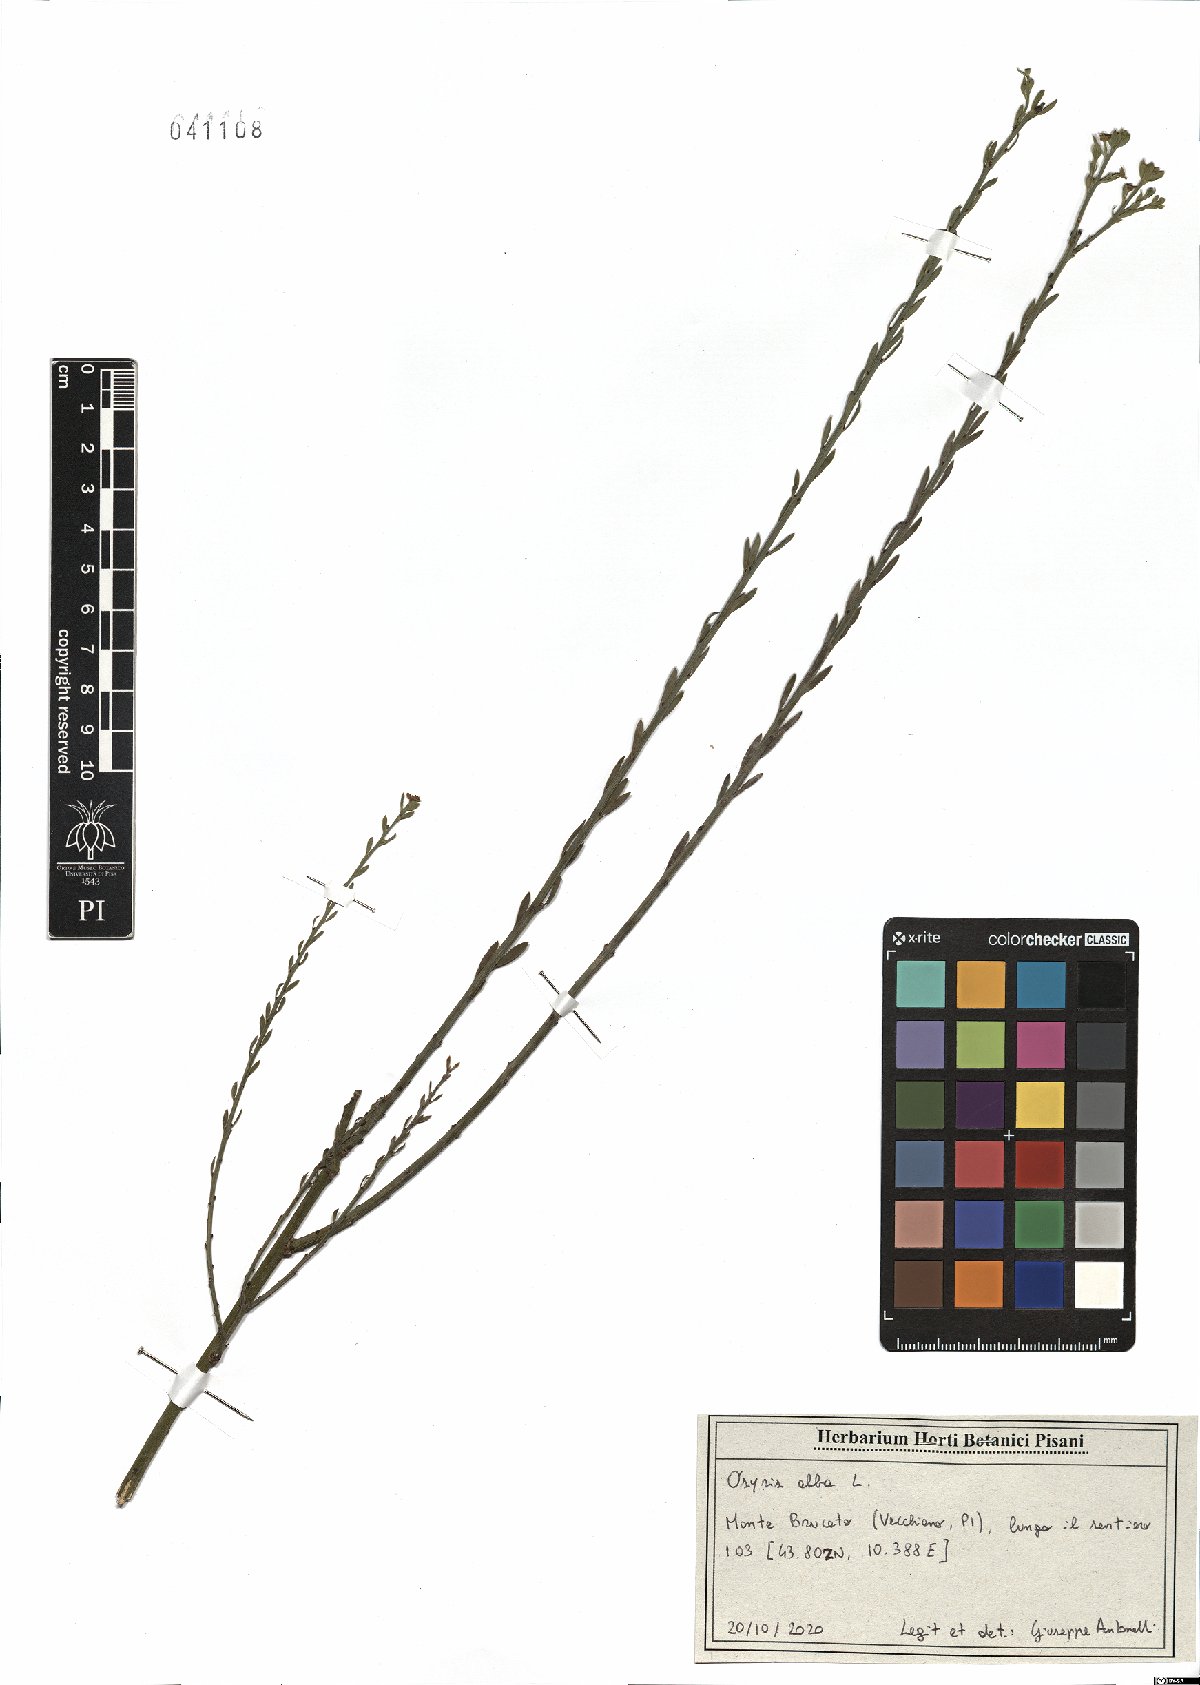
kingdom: Plantae
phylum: Tracheophyta
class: Magnoliopsida
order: Santalales
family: Santalaceae
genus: Osyris
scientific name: Osyris alba
